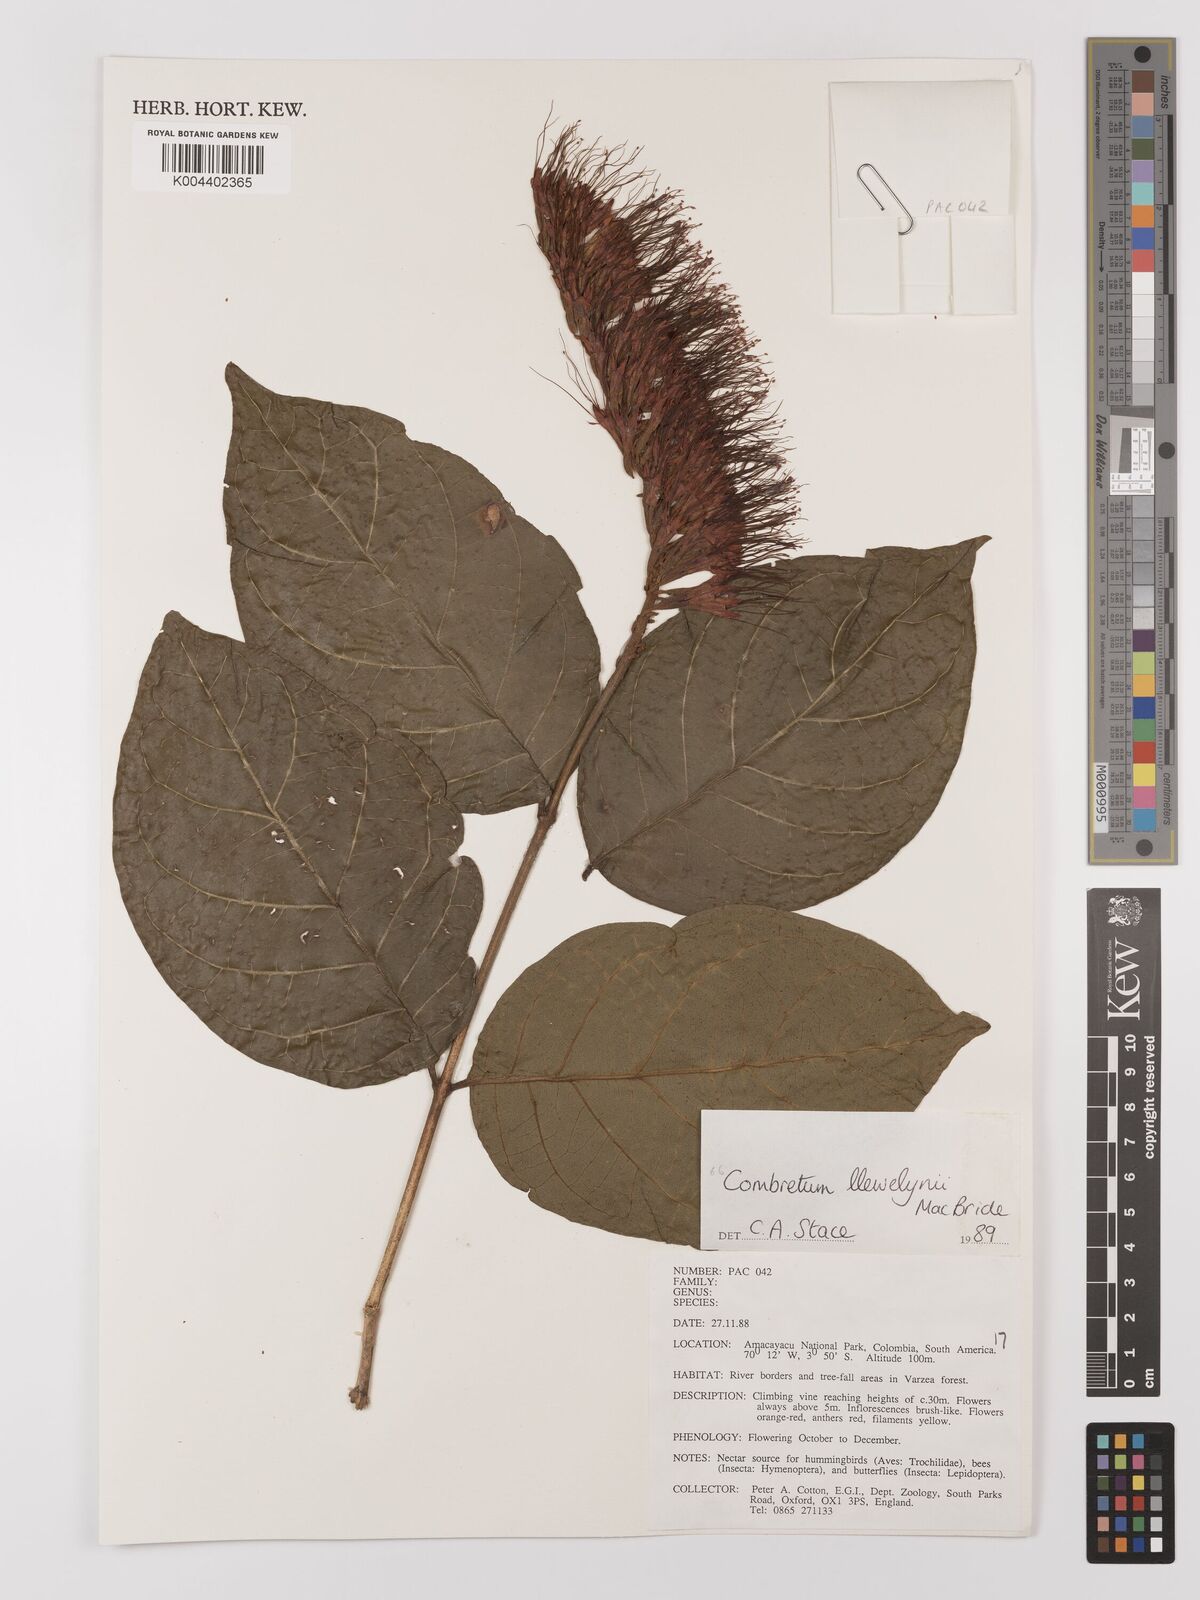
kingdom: Plantae
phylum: Tracheophyta
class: Magnoliopsida
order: Myrtales
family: Combretaceae
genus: Combretum
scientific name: Combretum llewelynii
